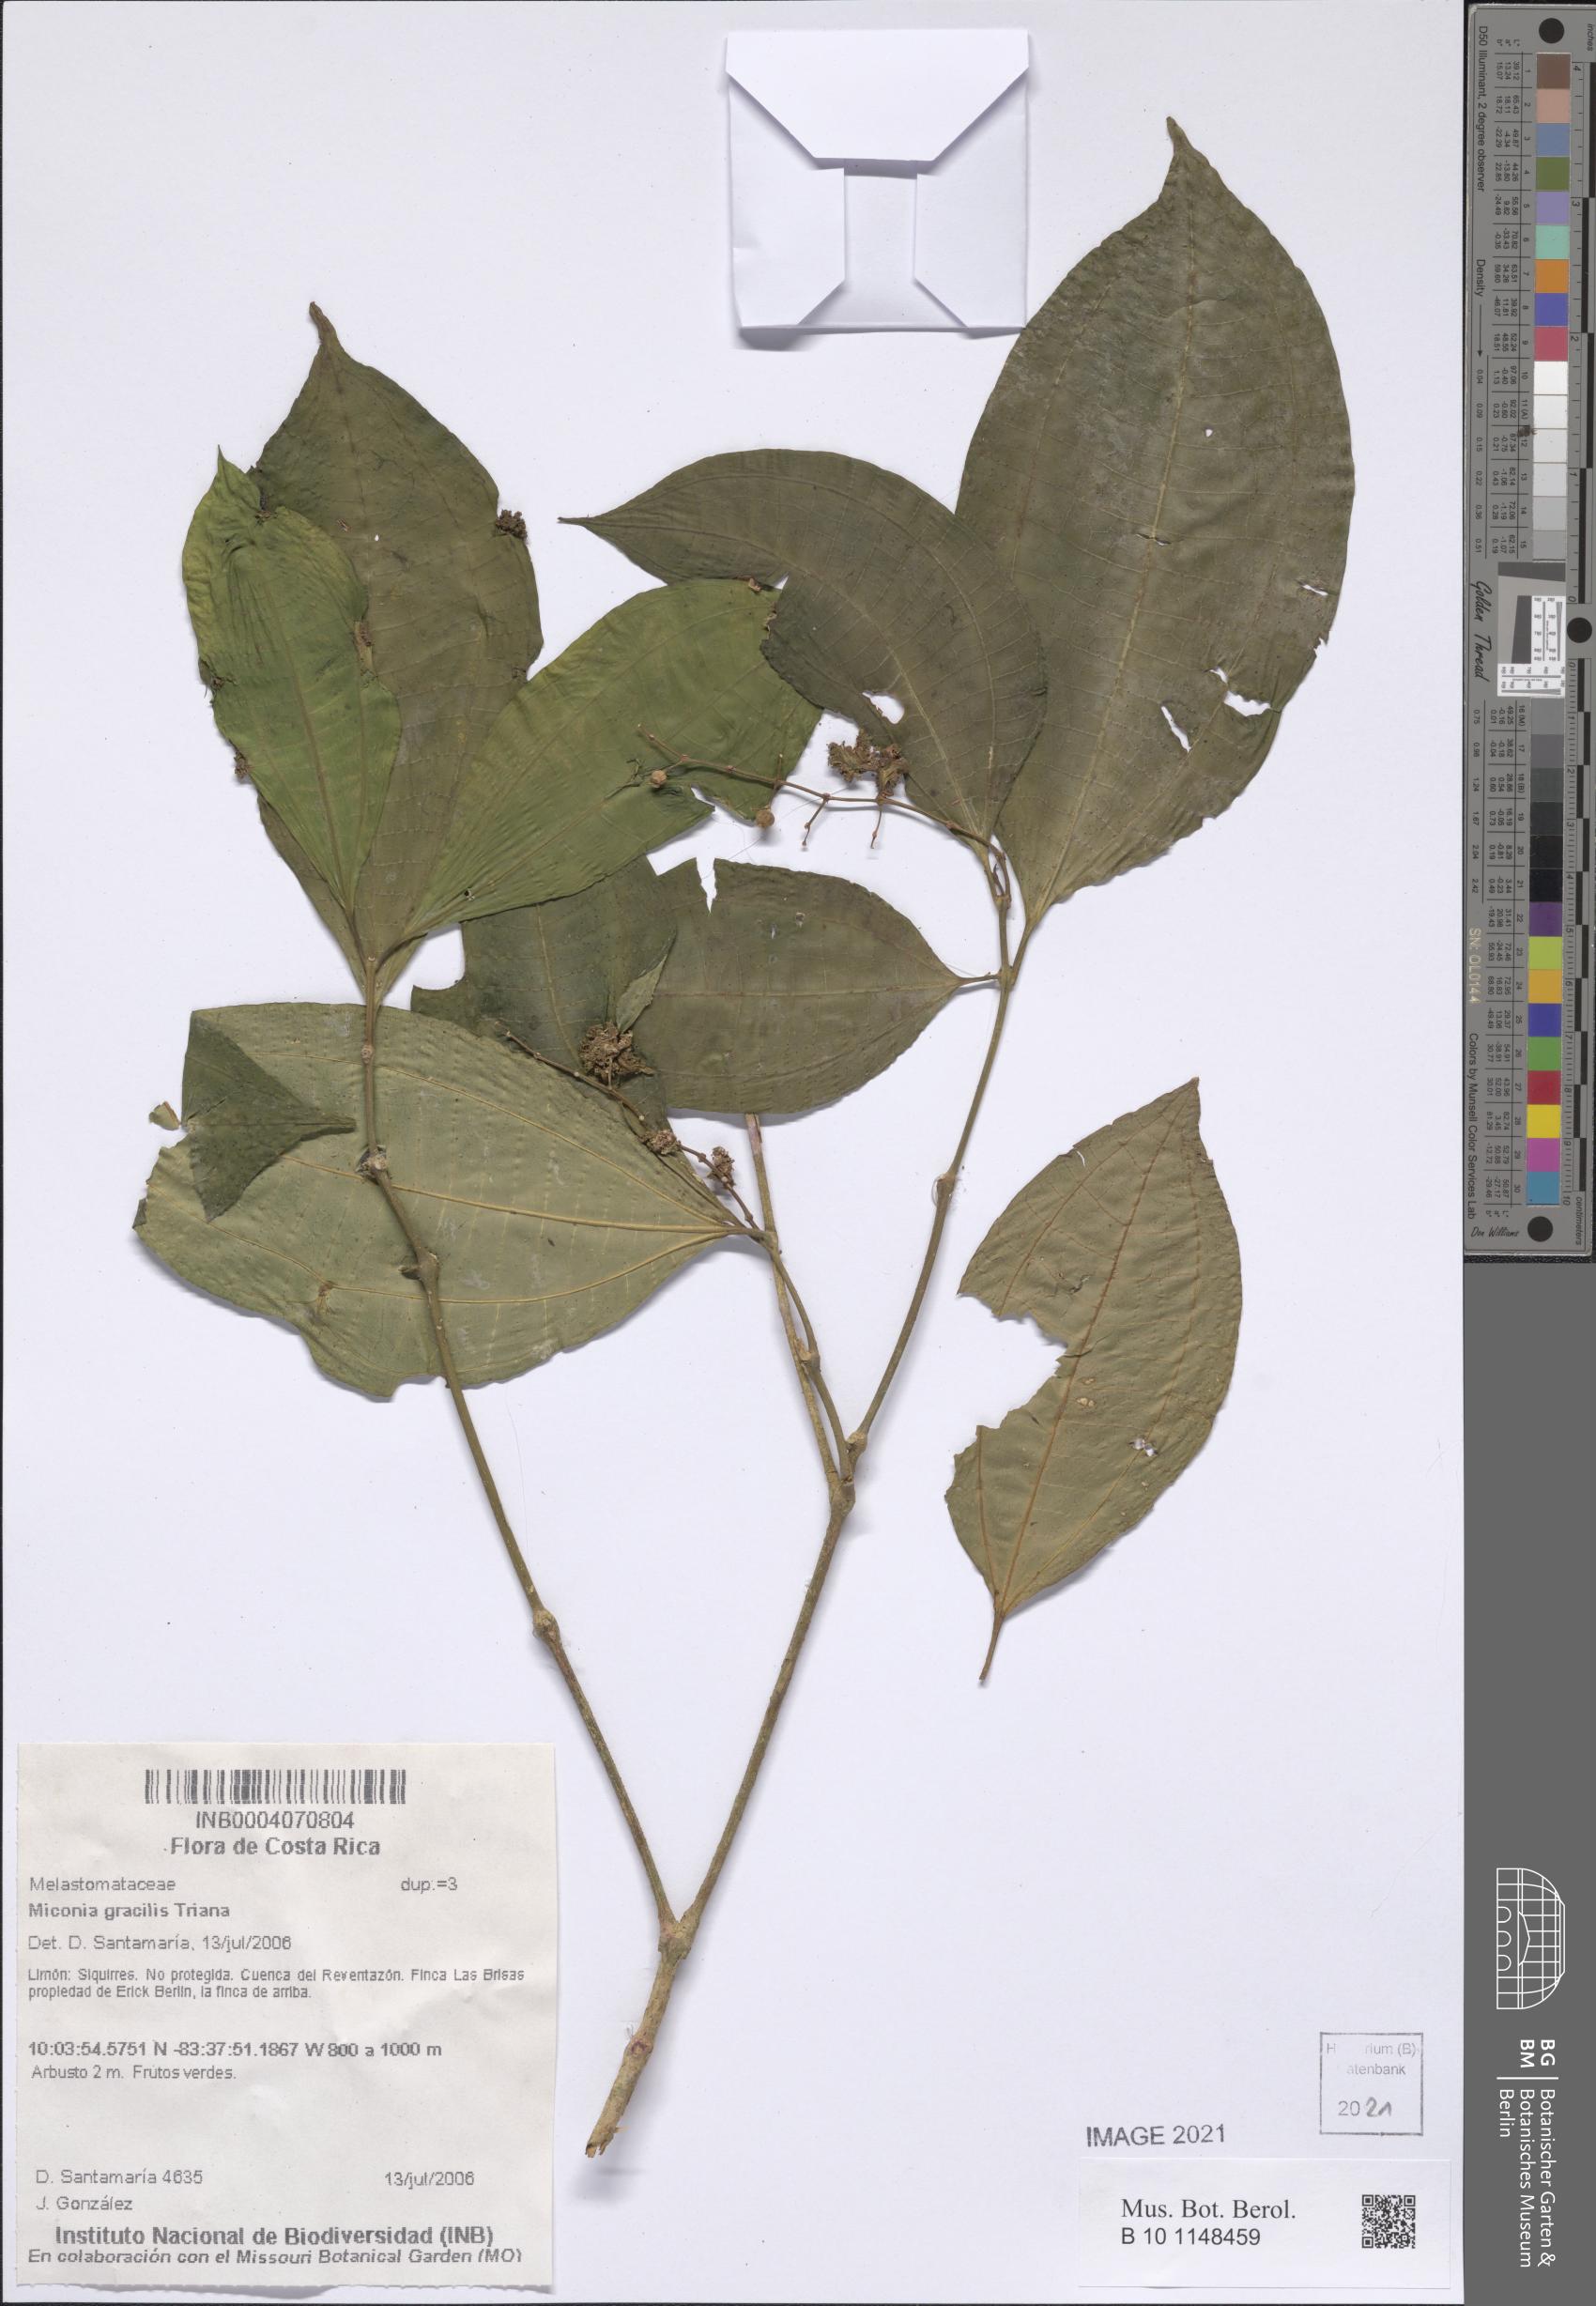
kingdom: Plantae
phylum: Tracheophyta
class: Magnoliopsida
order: Myrtales
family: Melastomataceae
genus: Miconia
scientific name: Miconia gracilis
